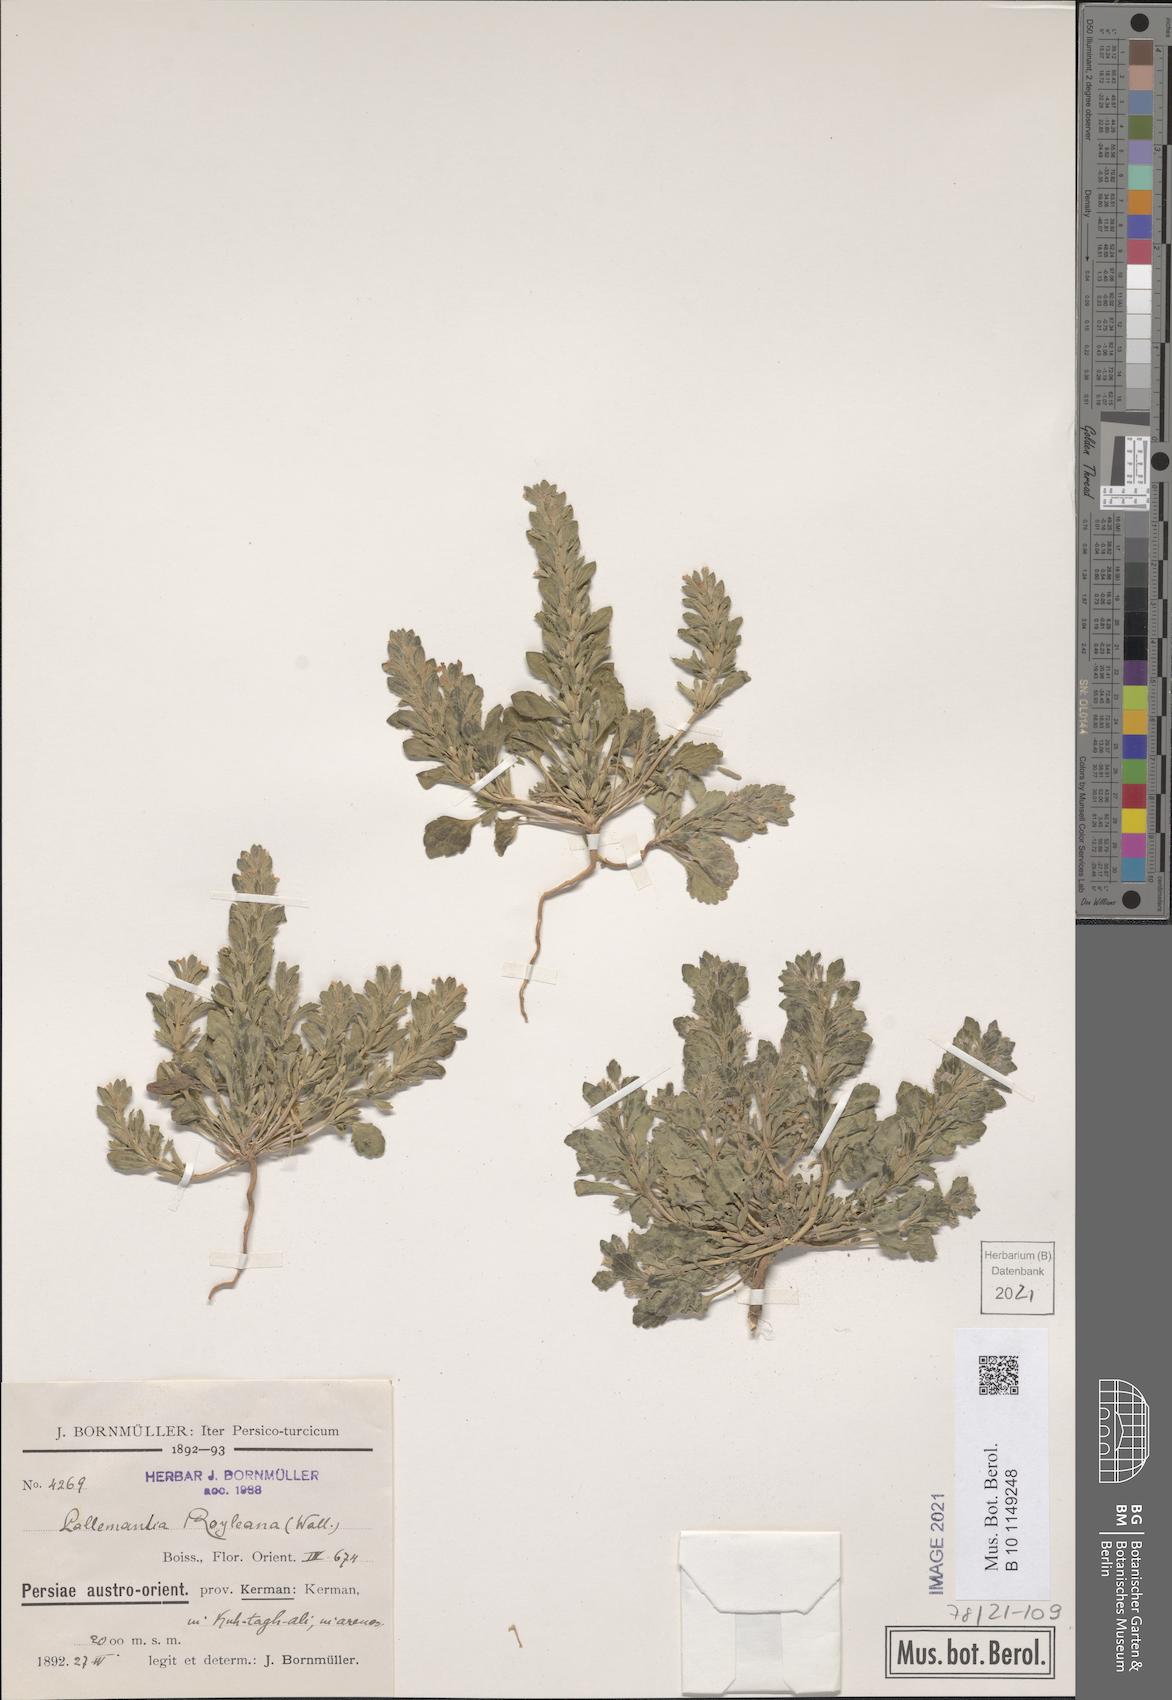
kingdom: Plantae
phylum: Tracheophyta
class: Magnoliopsida
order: Lamiales
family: Lamiaceae
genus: Lallemantia
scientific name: Lallemantia royleana
